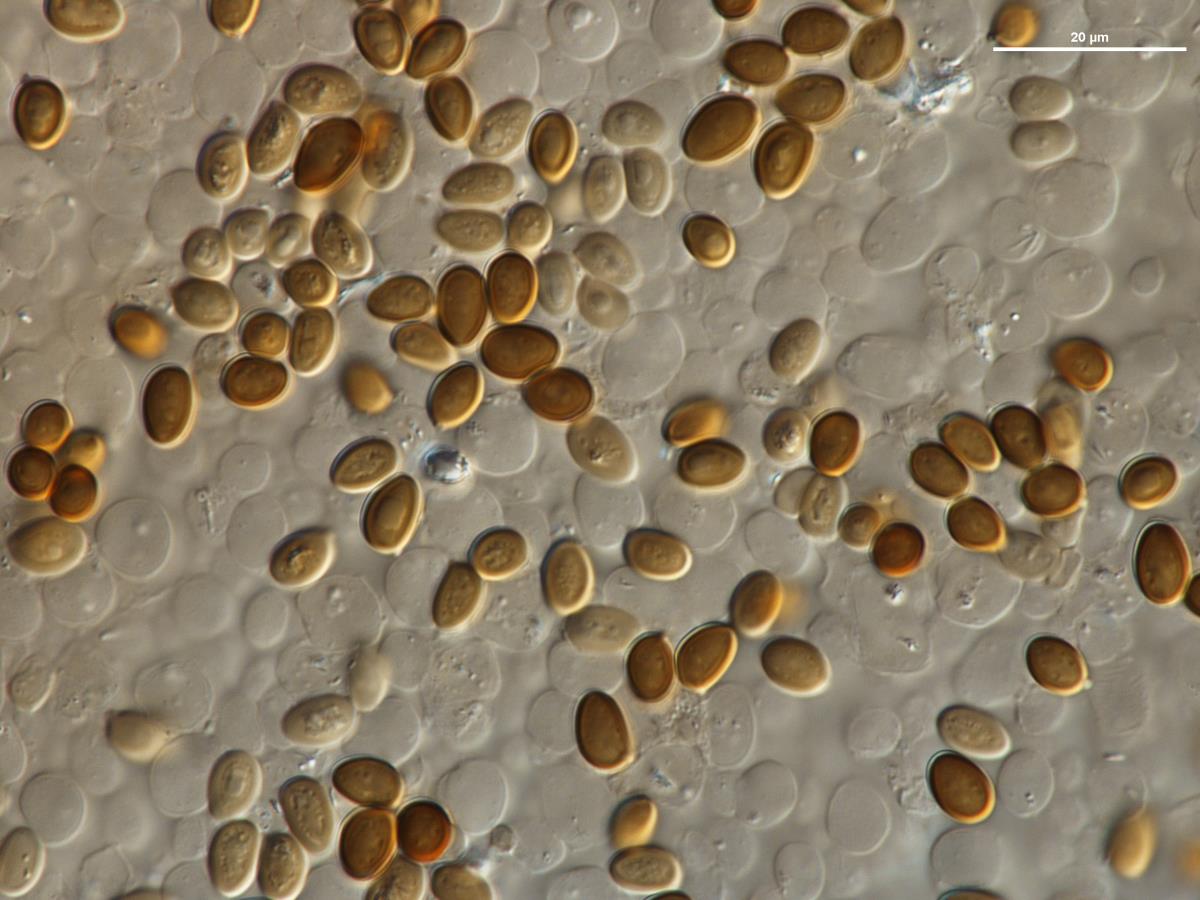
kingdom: Fungi
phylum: Basidiomycota
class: Agaricomycetes
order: Agaricales
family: Agaricaceae
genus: Agaricus
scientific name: Agaricus
